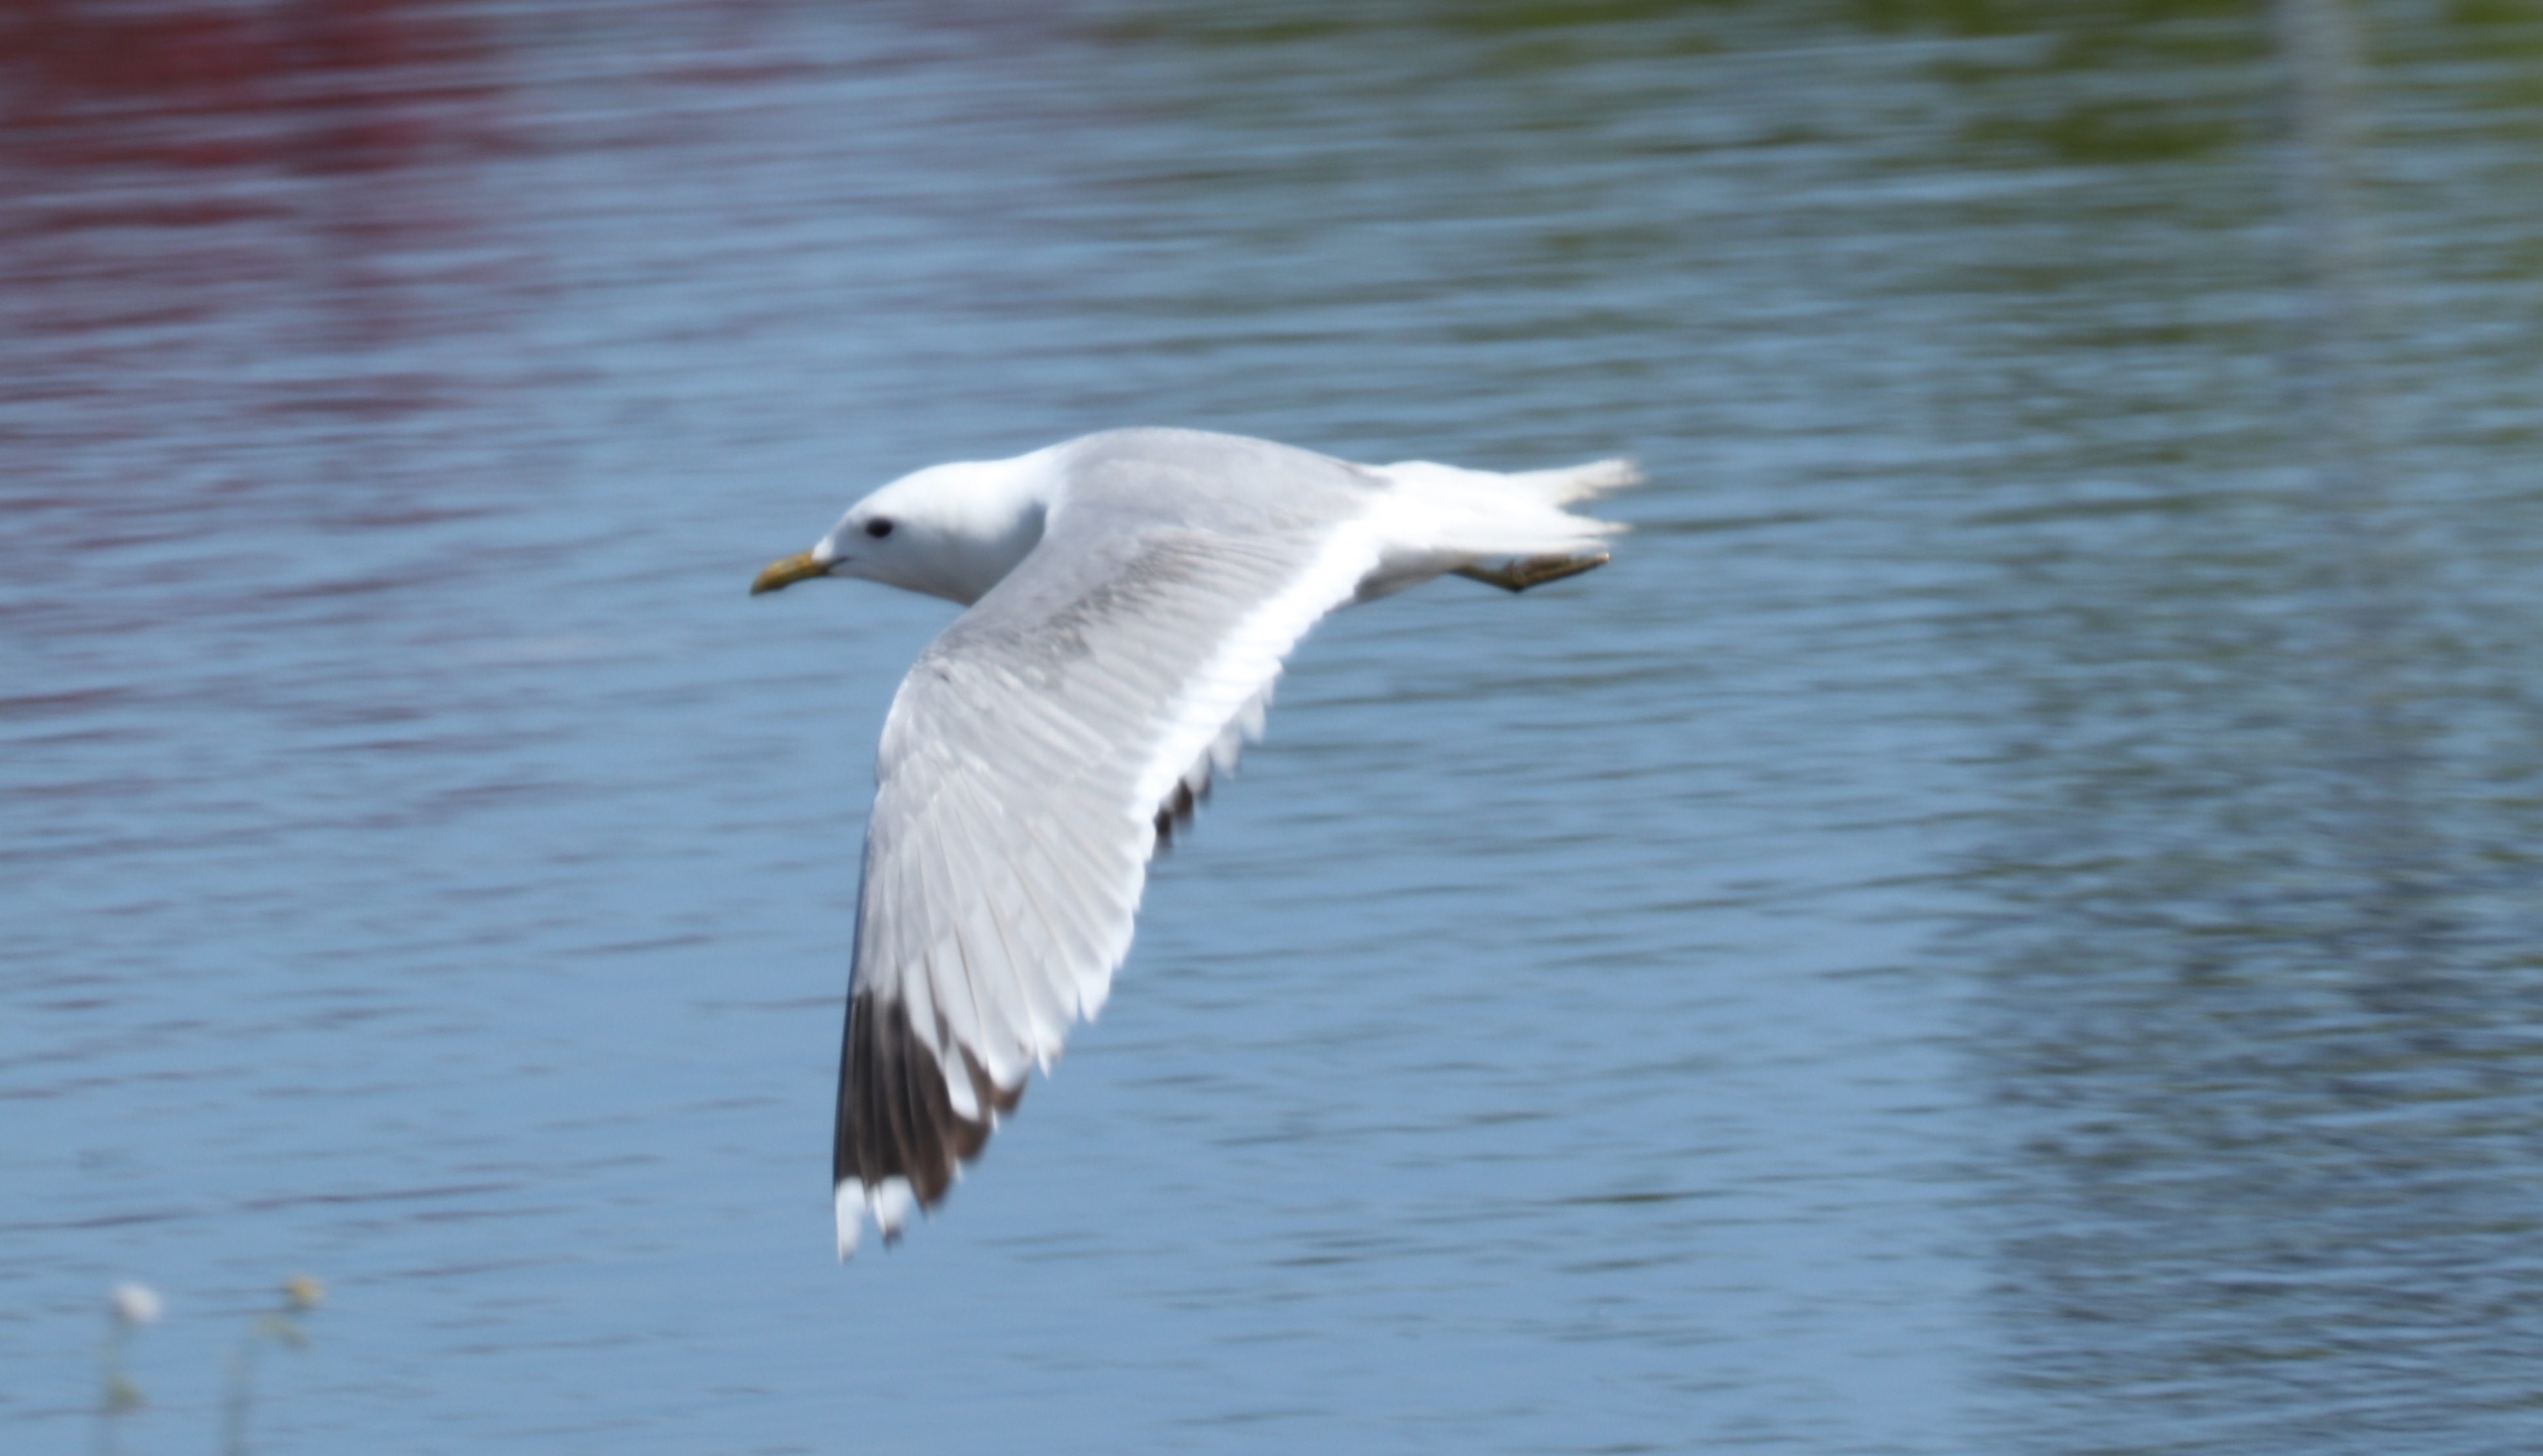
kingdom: Animalia
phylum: Chordata
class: Aves
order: Charadriiformes
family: Laridae
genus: Larus
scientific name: Larus canus
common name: Stormmåge
